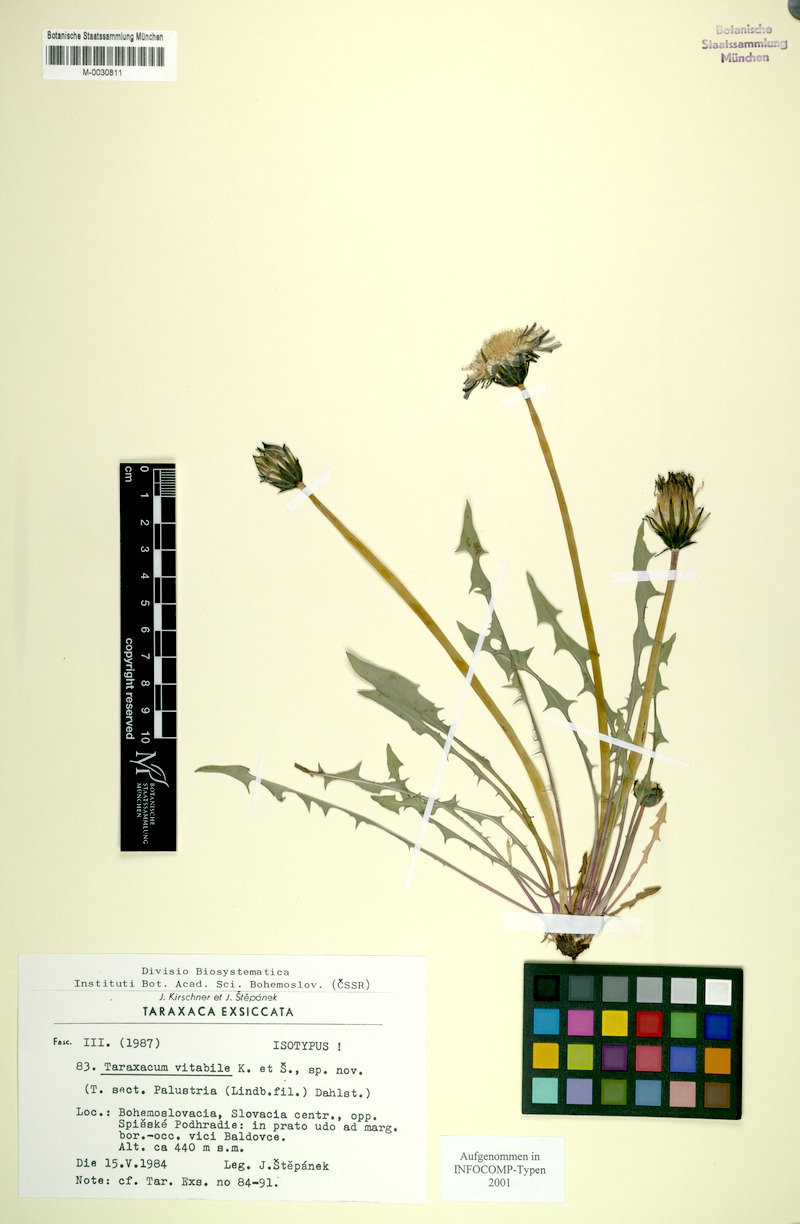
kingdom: Plantae
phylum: Tracheophyta
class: Magnoliopsida
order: Asterales
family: Asteraceae
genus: Taraxacum
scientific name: Taraxacum vindobonense
